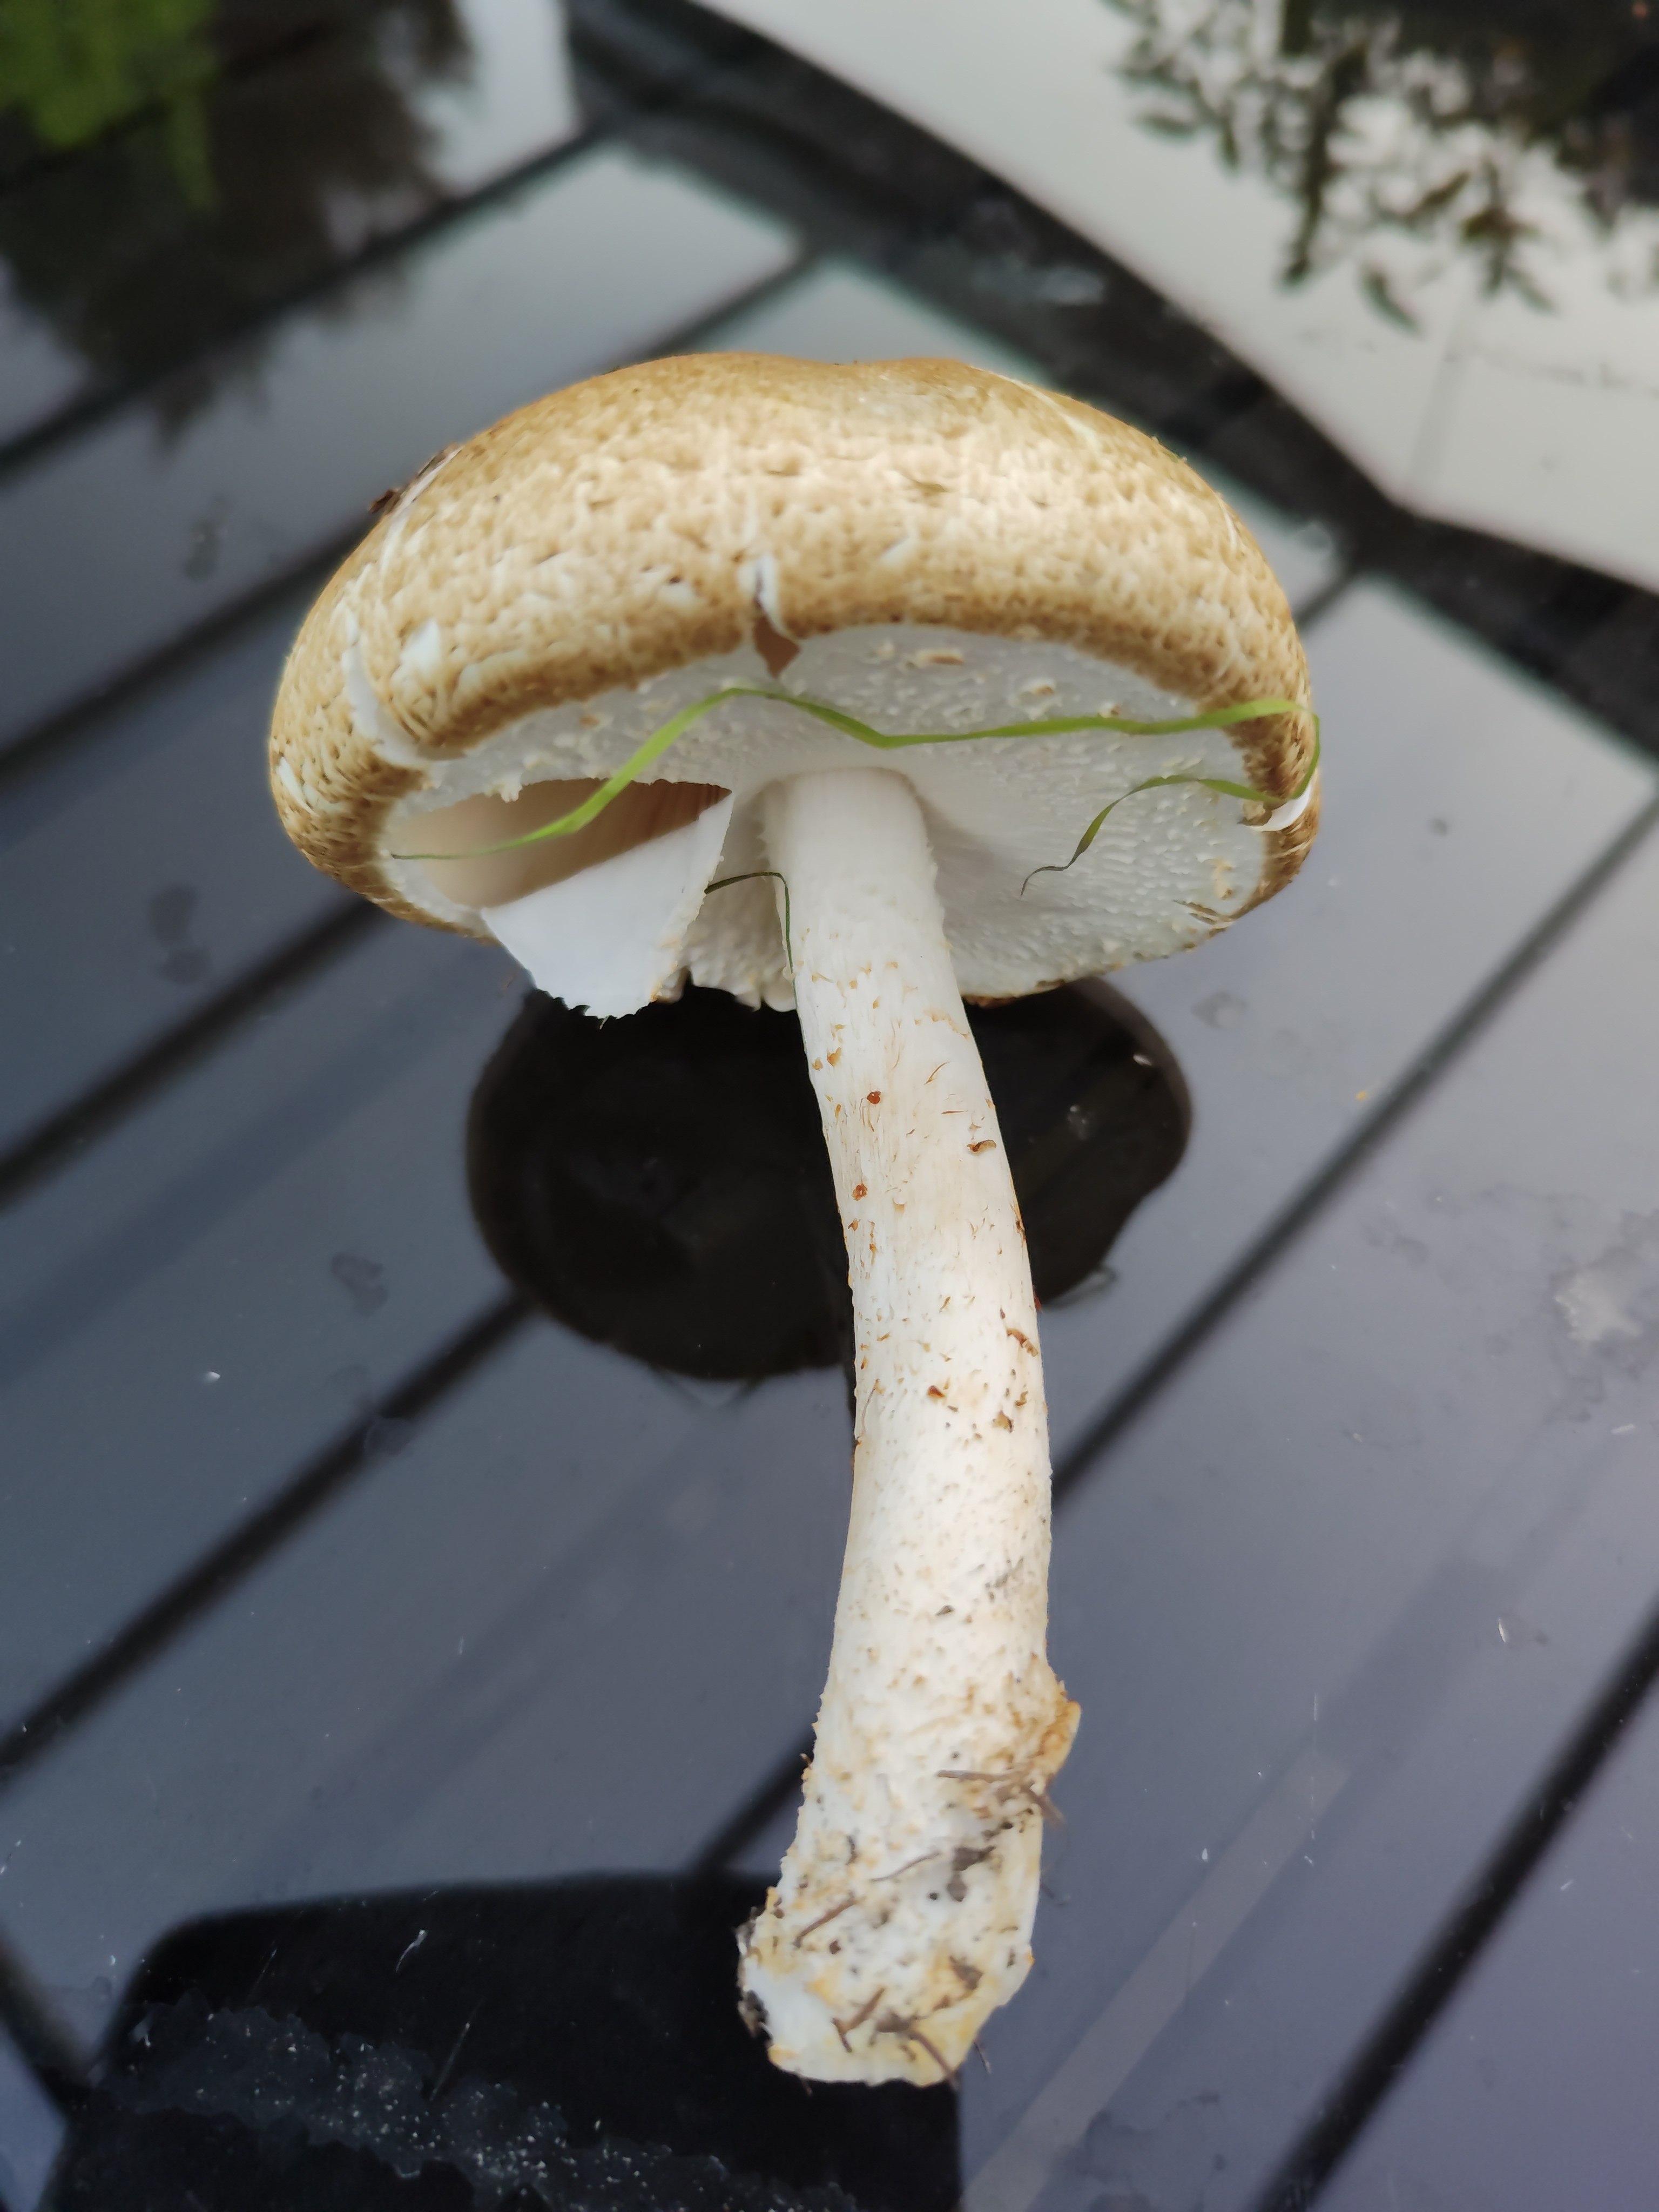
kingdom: Fungi
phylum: Basidiomycota
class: Agaricomycetes
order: Agaricales
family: Agaricaceae
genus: Agaricus
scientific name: Agaricus augustus
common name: prægtig champignon
